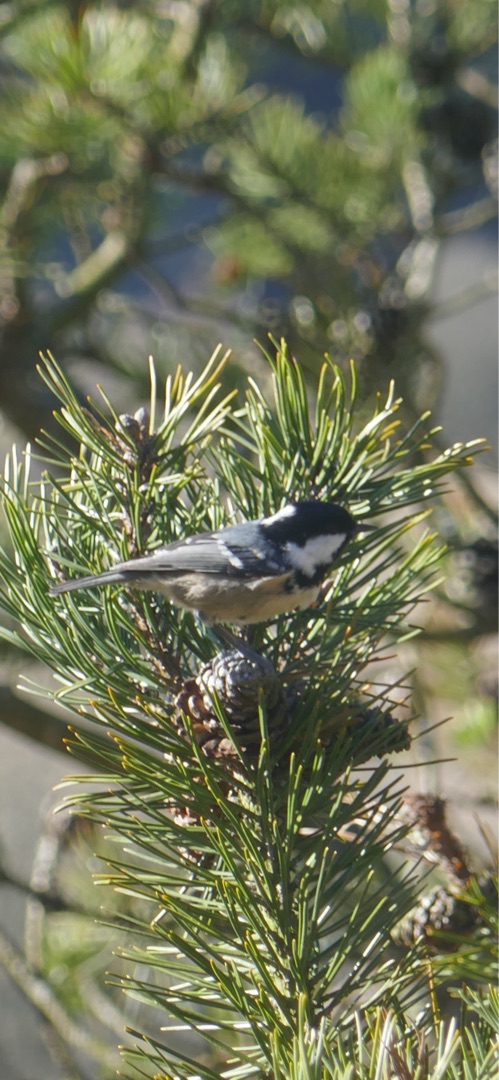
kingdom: Animalia
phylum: Chordata
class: Aves
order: Passeriformes
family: Paridae
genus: Periparus
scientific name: Periparus ater
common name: Sortmejse
